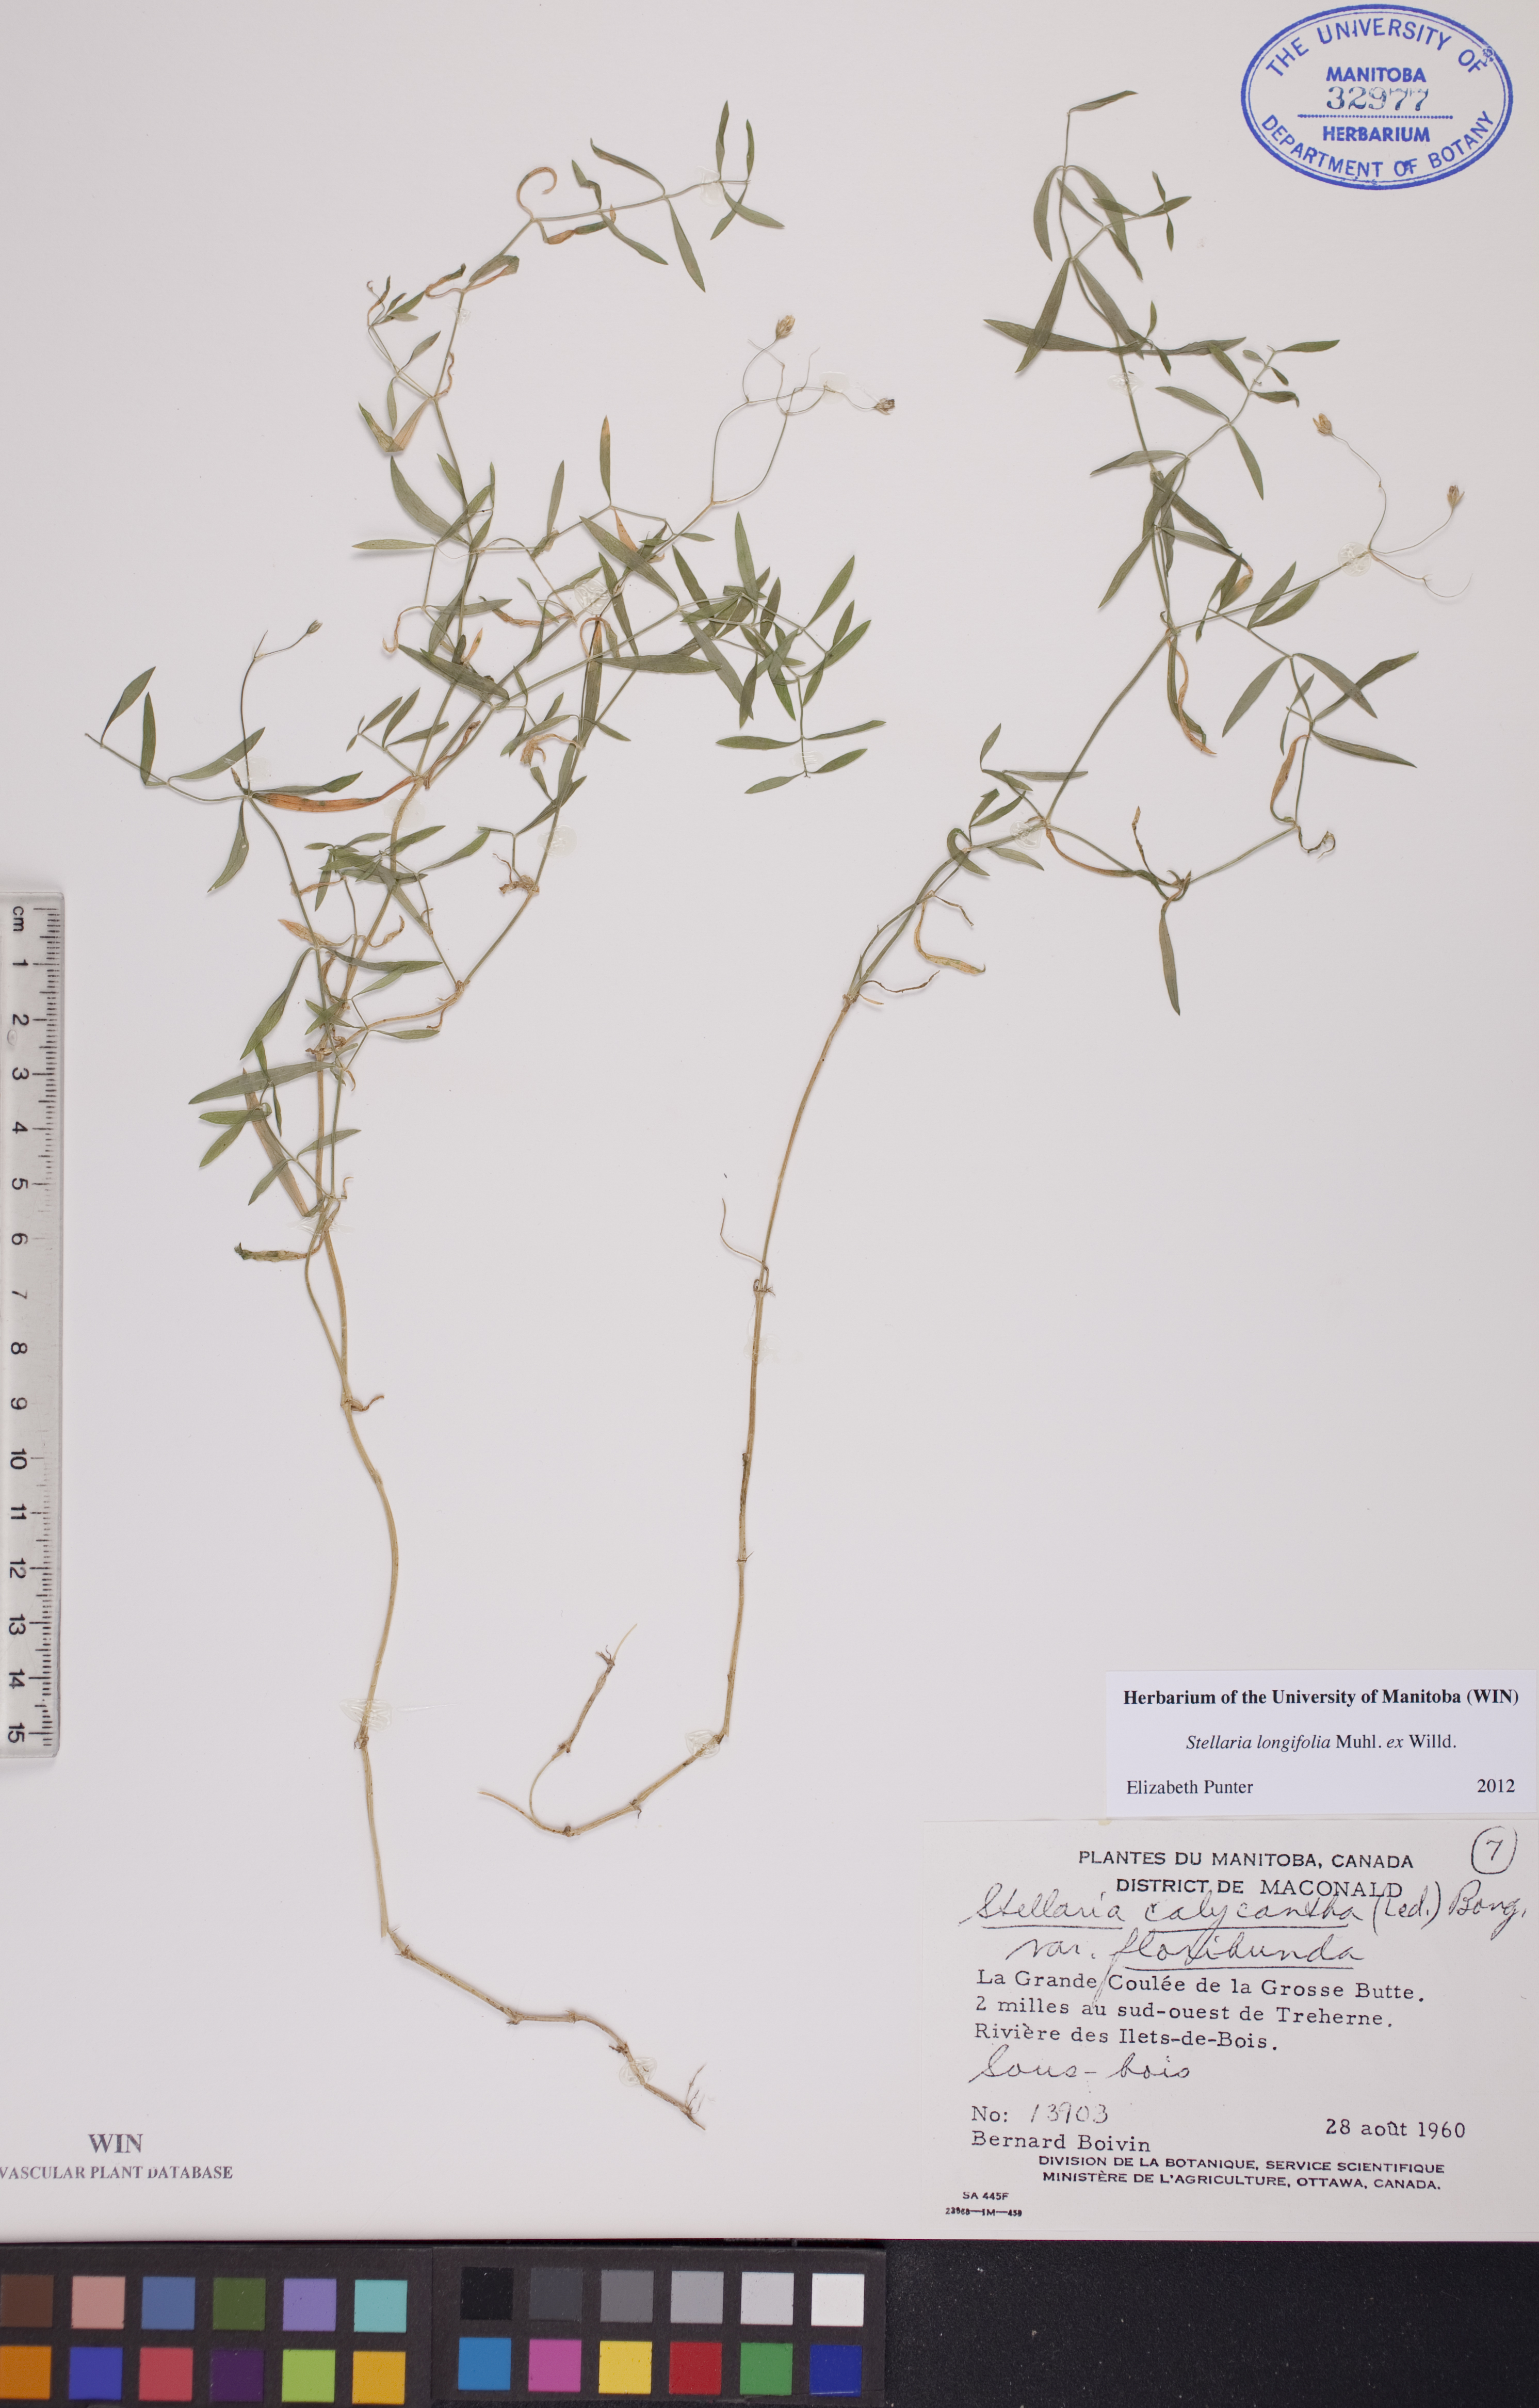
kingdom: Plantae
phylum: Tracheophyta
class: Magnoliopsida
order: Caryophyllales
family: Caryophyllaceae
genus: Stellaria
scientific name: Stellaria longifolia
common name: Long-leaved chickweed
